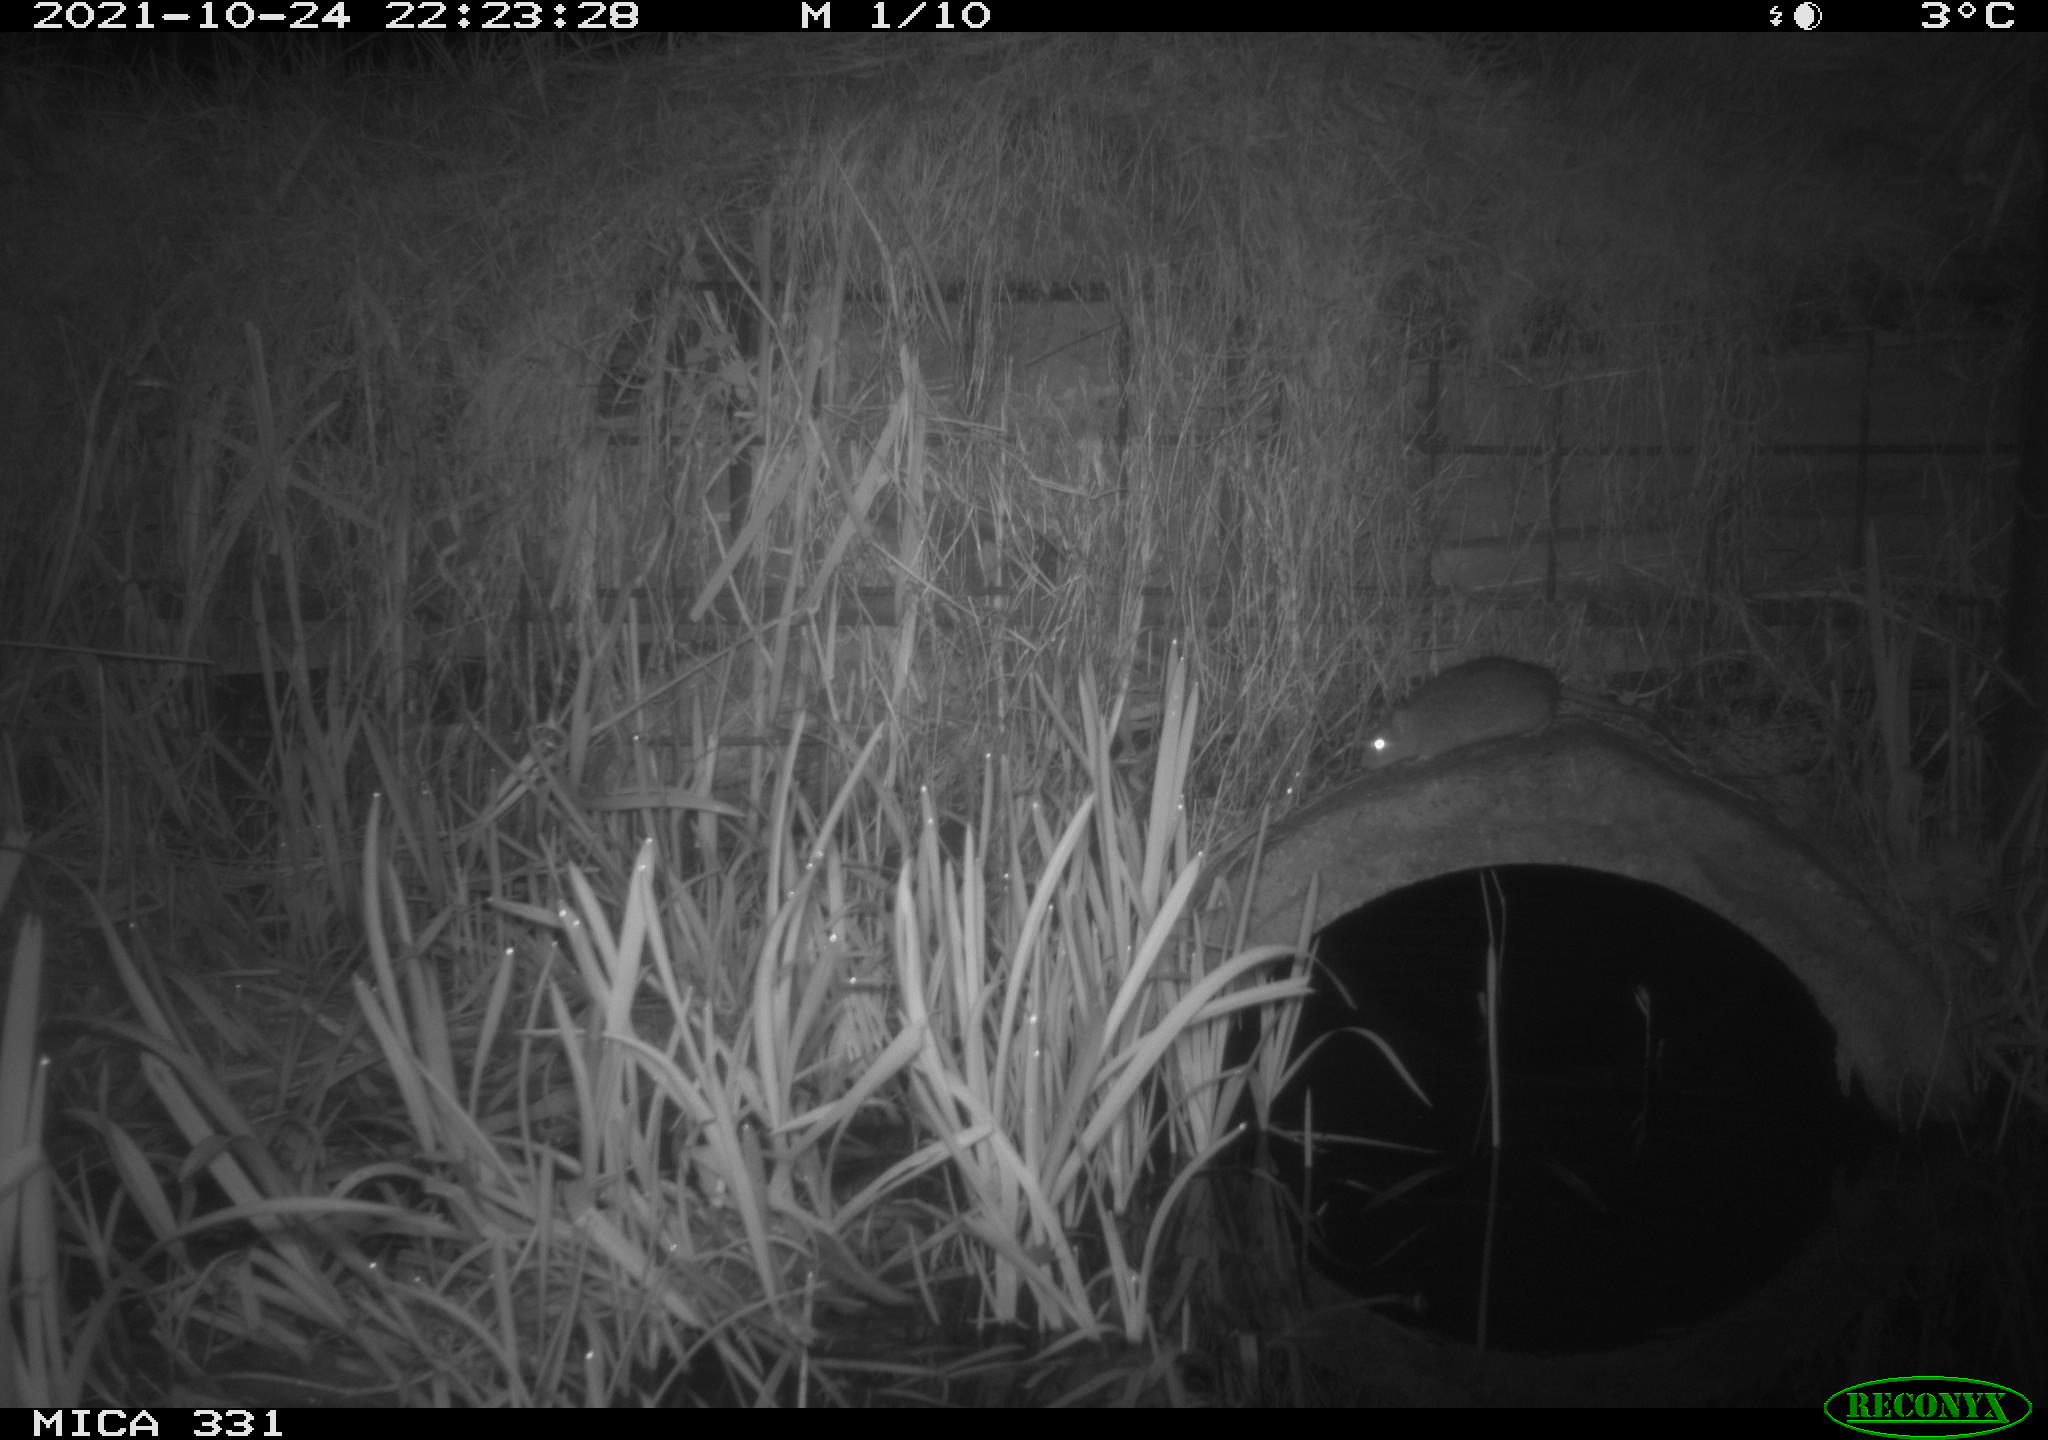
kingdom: Animalia
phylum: Chordata
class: Mammalia
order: Rodentia
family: Muridae
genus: Rattus
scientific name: Rattus norvegicus
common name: Brown rat
